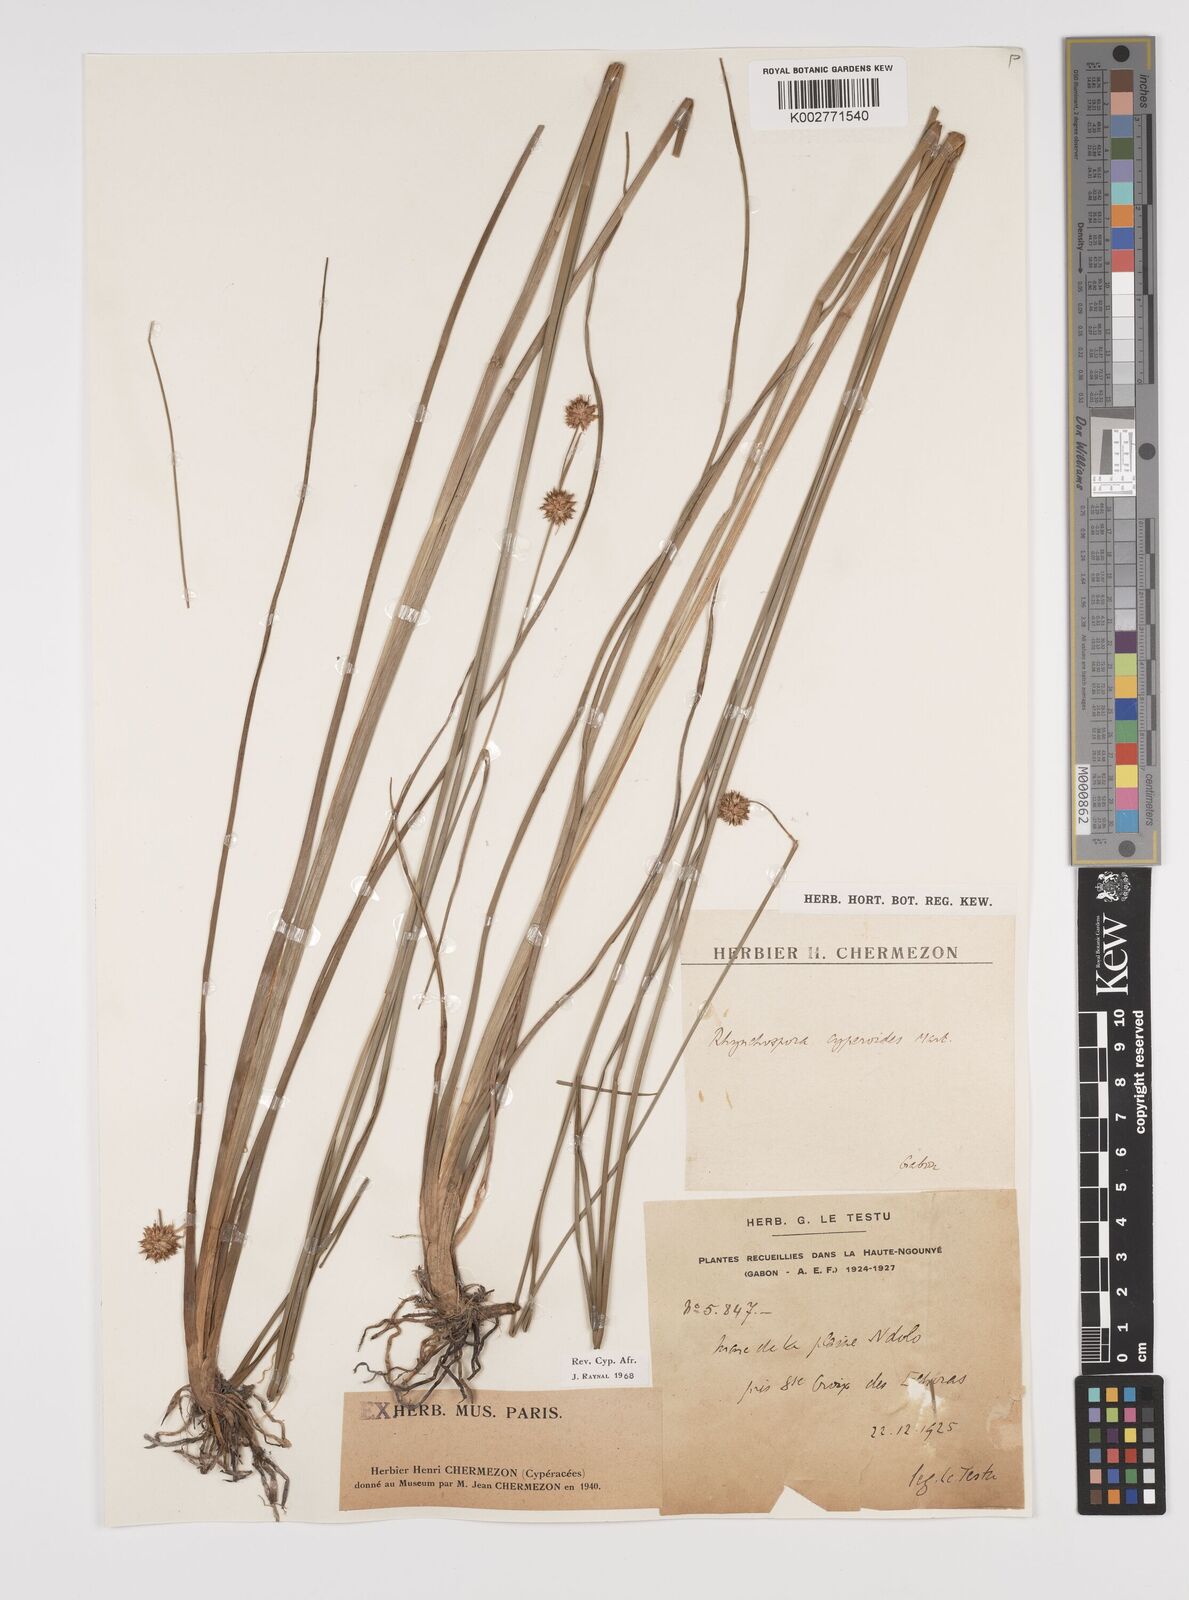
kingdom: Plantae
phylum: Tracheophyta
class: Liliopsida
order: Poales
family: Cyperaceae
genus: Rhynchospora
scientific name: Rhynchospora holoschoenoides
